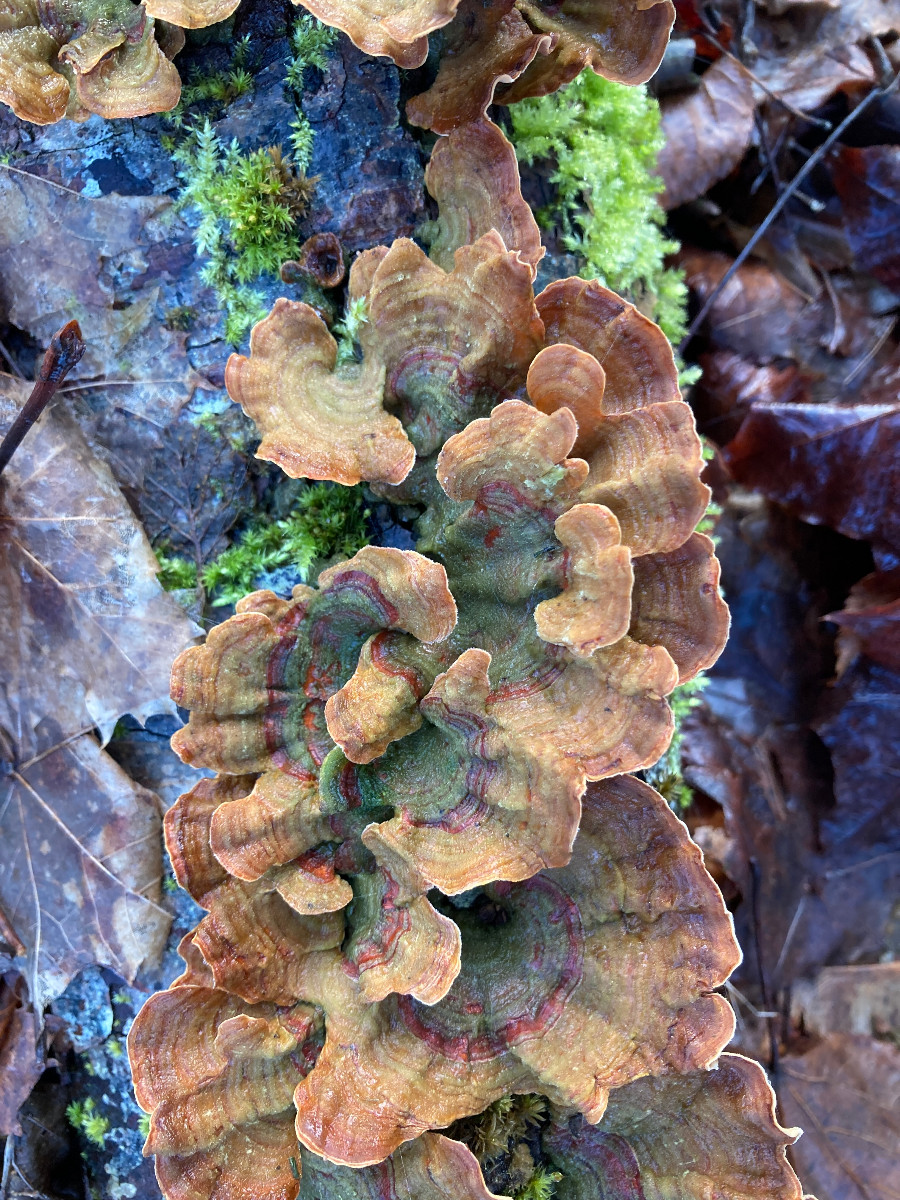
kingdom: Fungi
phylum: Basidiomycota
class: Agaricomycetes
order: Russulales
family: Stereaceae
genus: Stereum
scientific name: Stereum subtomentosum
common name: smuk lædersvamp
